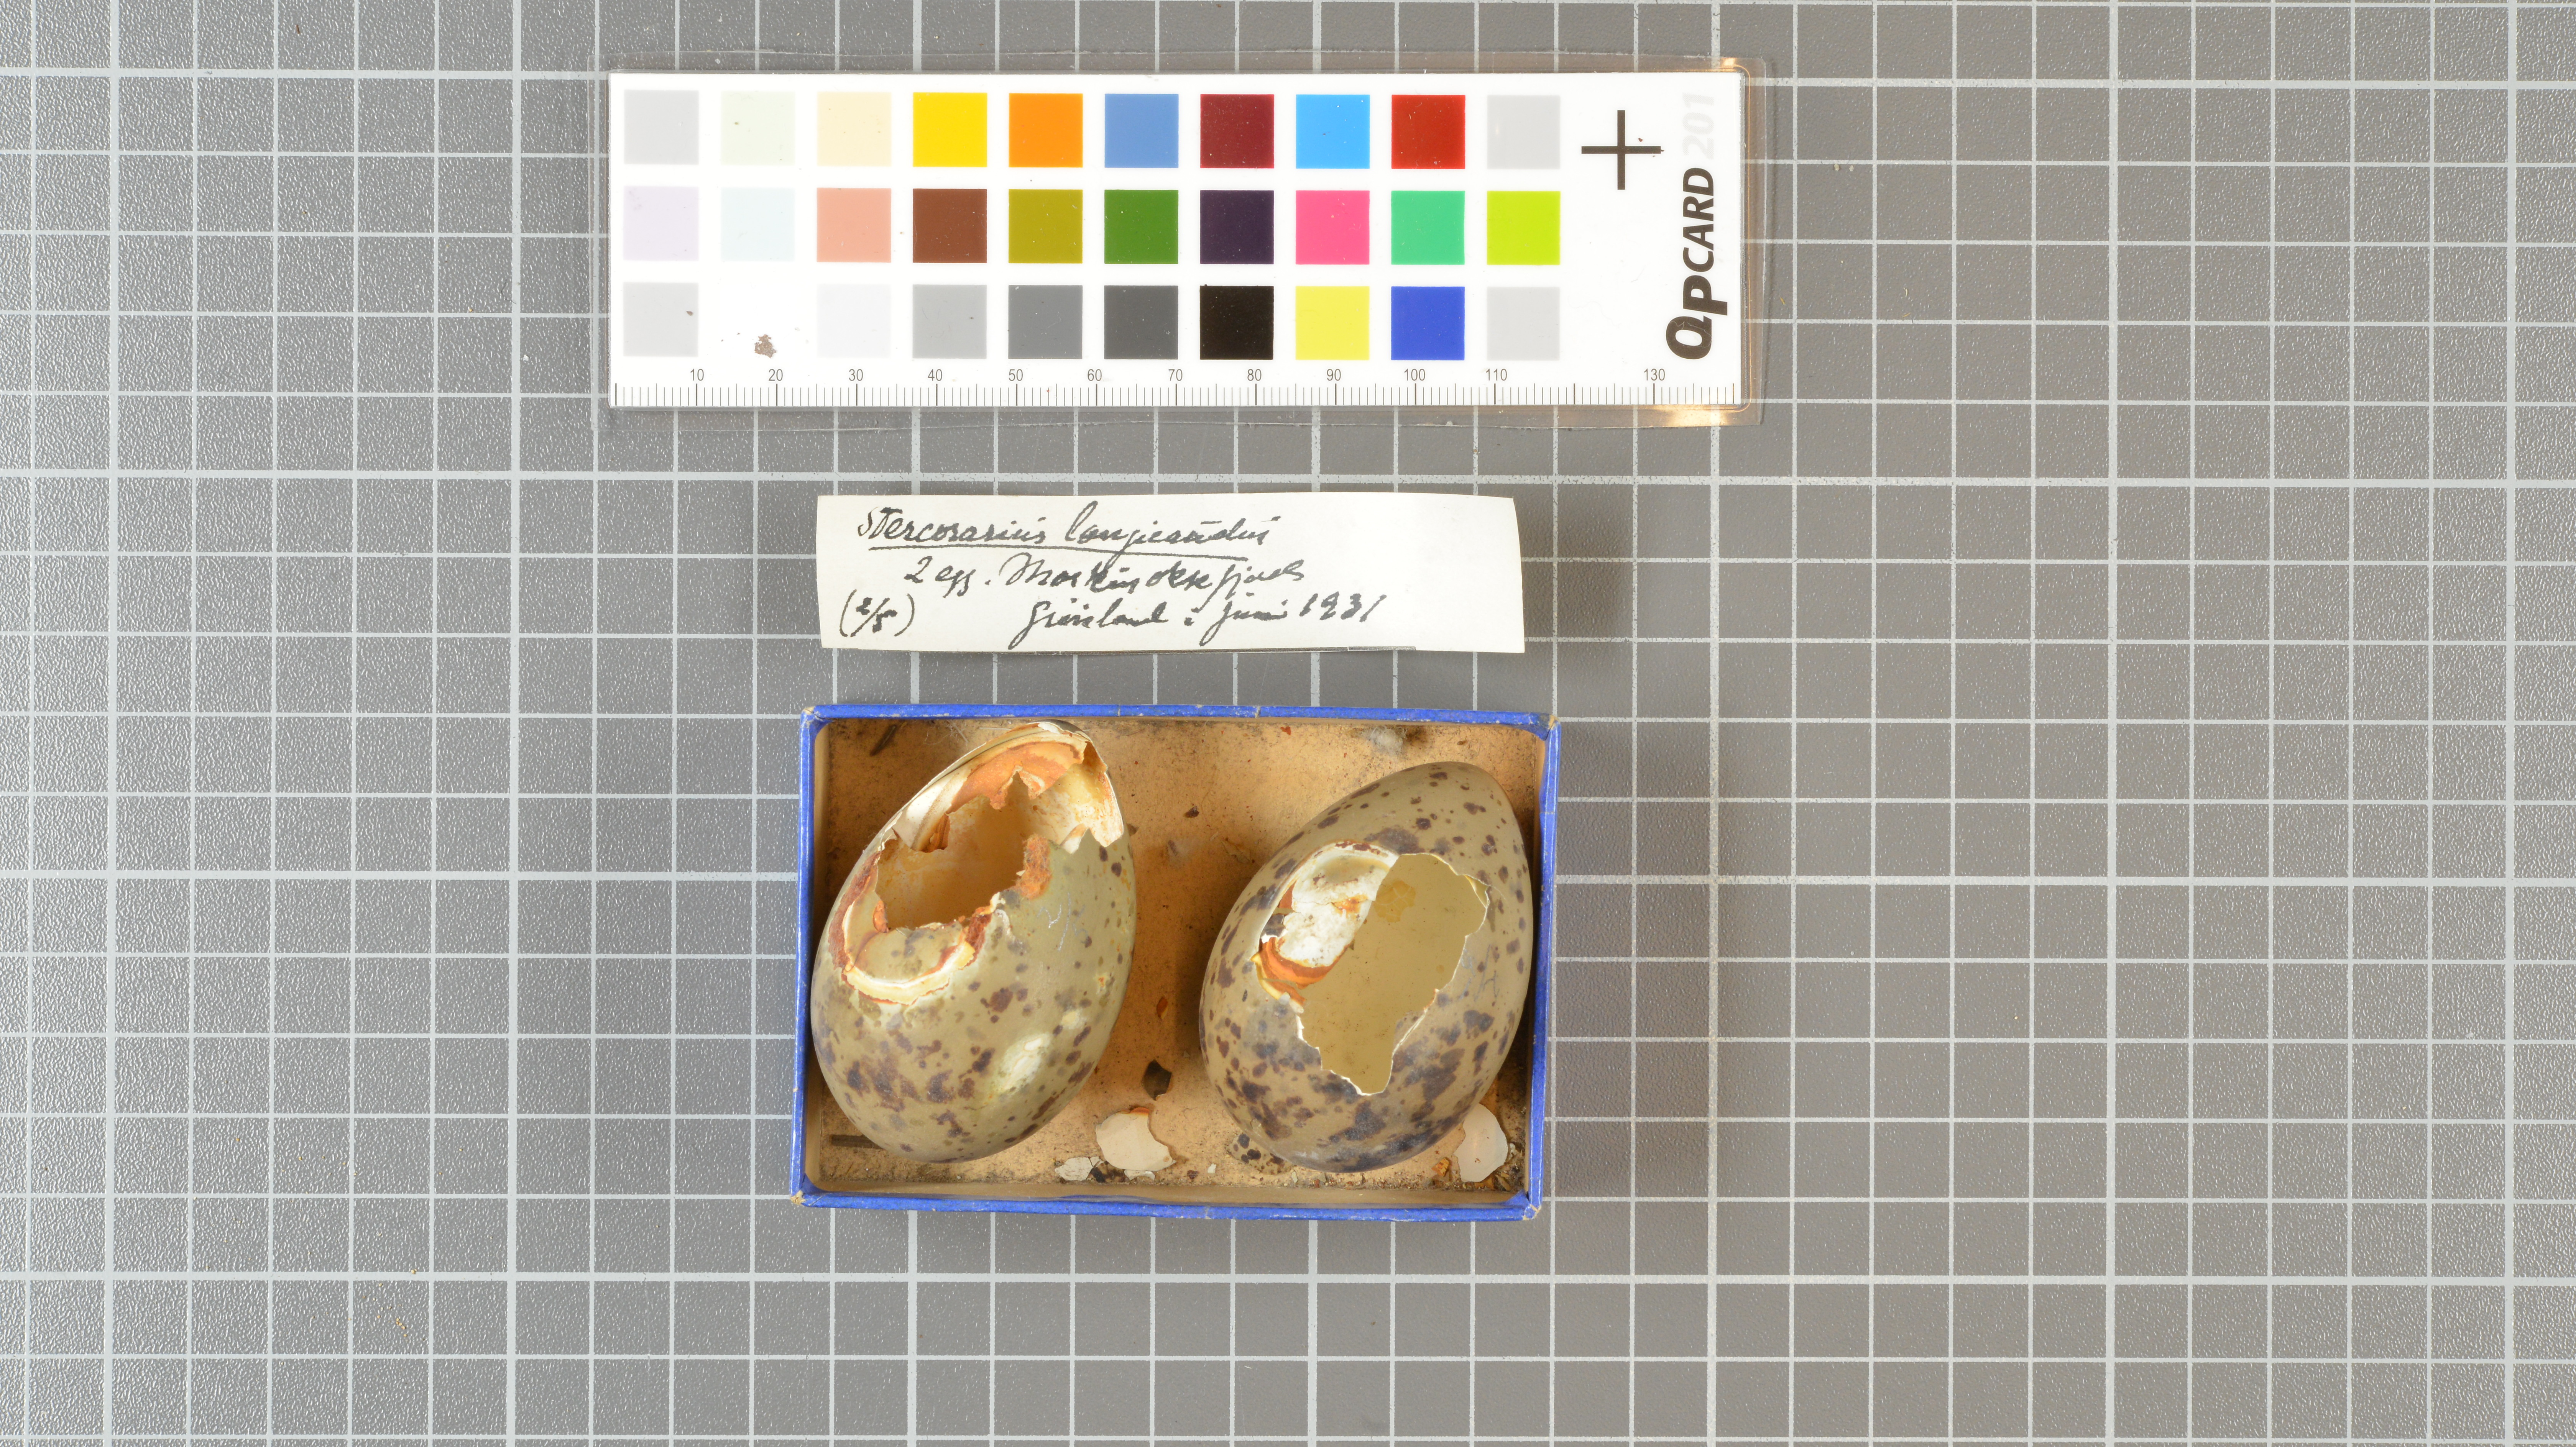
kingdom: Animalia
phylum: Chordata
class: Aves
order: Charadriiformes
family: Stercorariidae
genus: Stercorarius
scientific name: Stercorarius longicaudus
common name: Long-tailed jaeger
